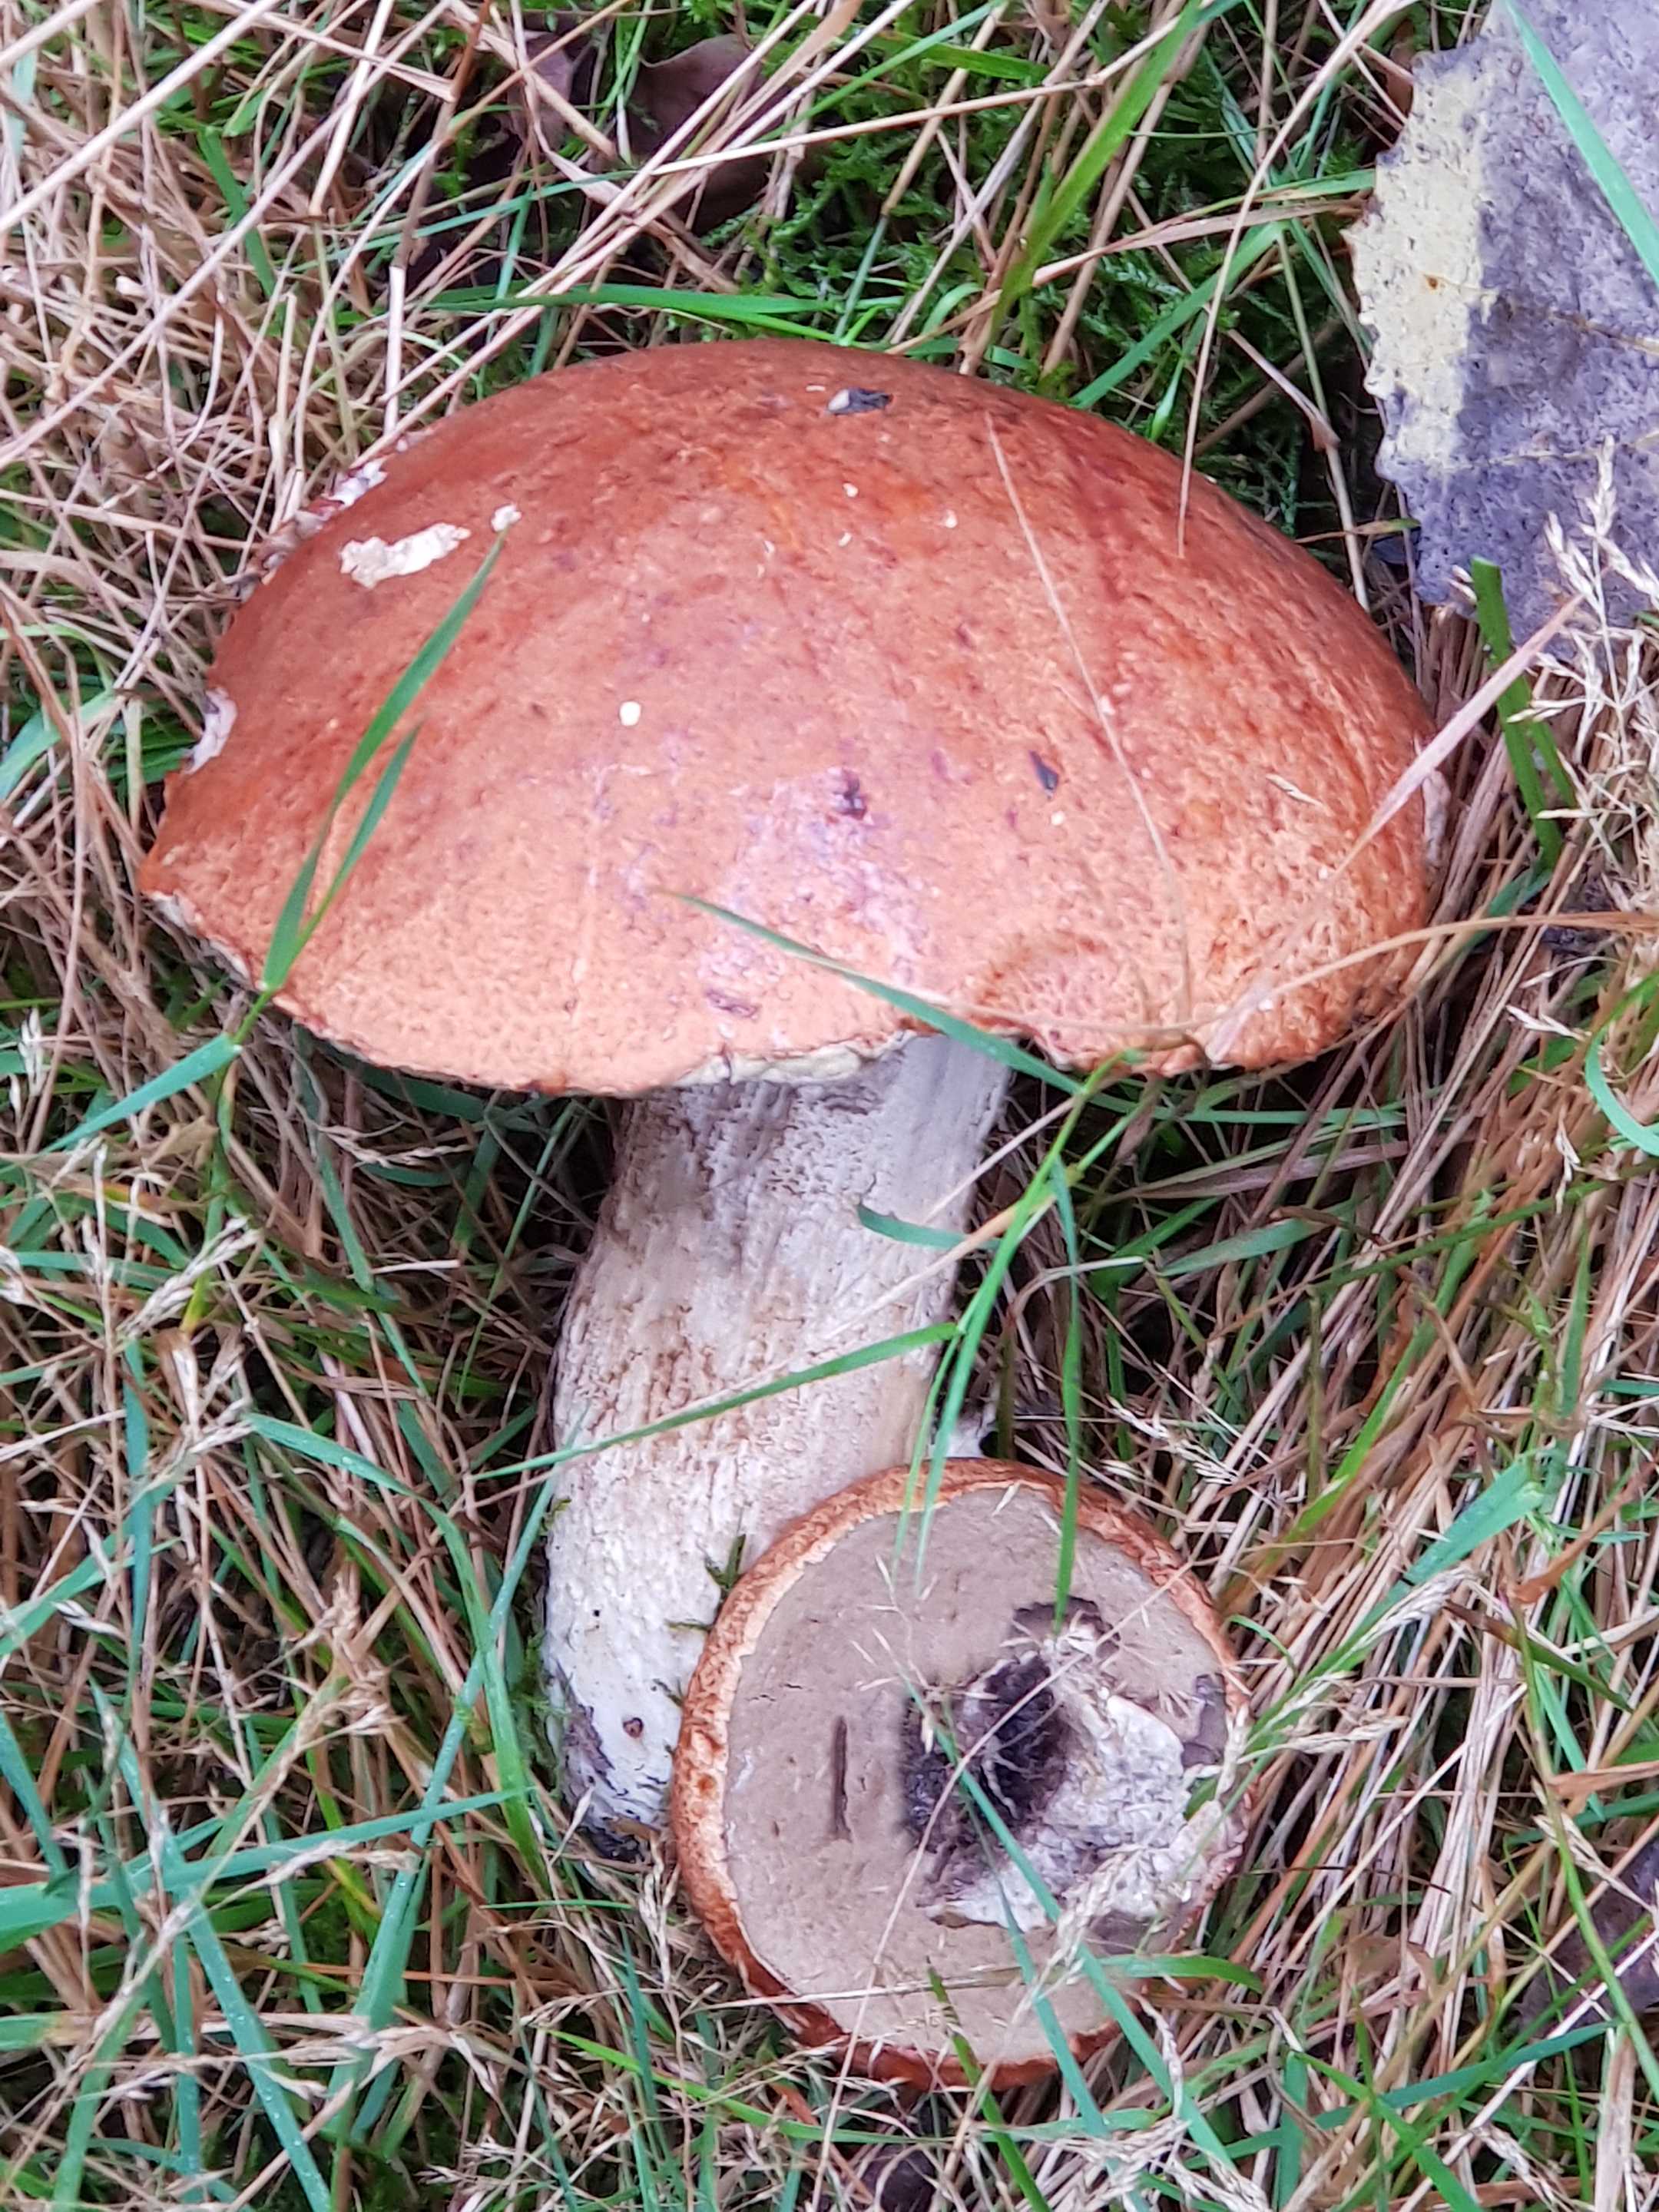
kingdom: Fungi
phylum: Basidiomycota
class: Agaricomycetes
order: Boletales
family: Boletaceae
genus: Leccinum
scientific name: Leccinum aurantiacum
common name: rustrød skælrørhat
